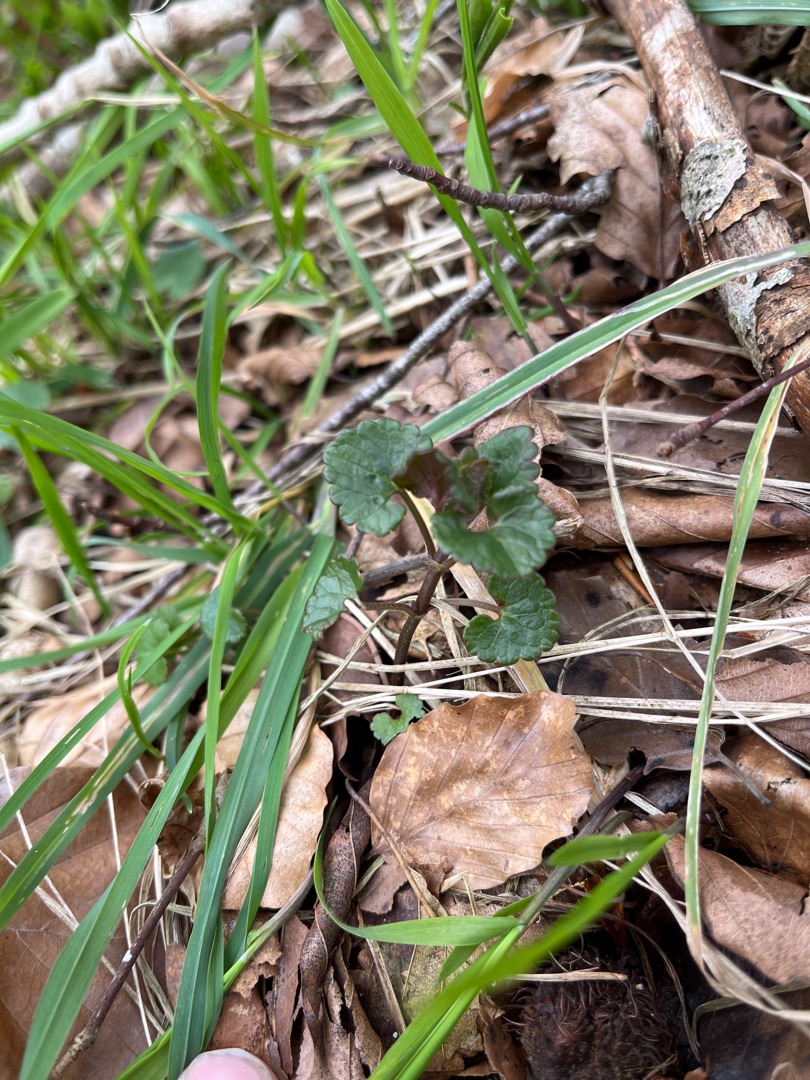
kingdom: Plantae
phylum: Tracheophyta
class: Magnoliopsida
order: Lamiales
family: Lamiaceae
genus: Glechoma
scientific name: Glechoma hederacea
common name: Korsknap
